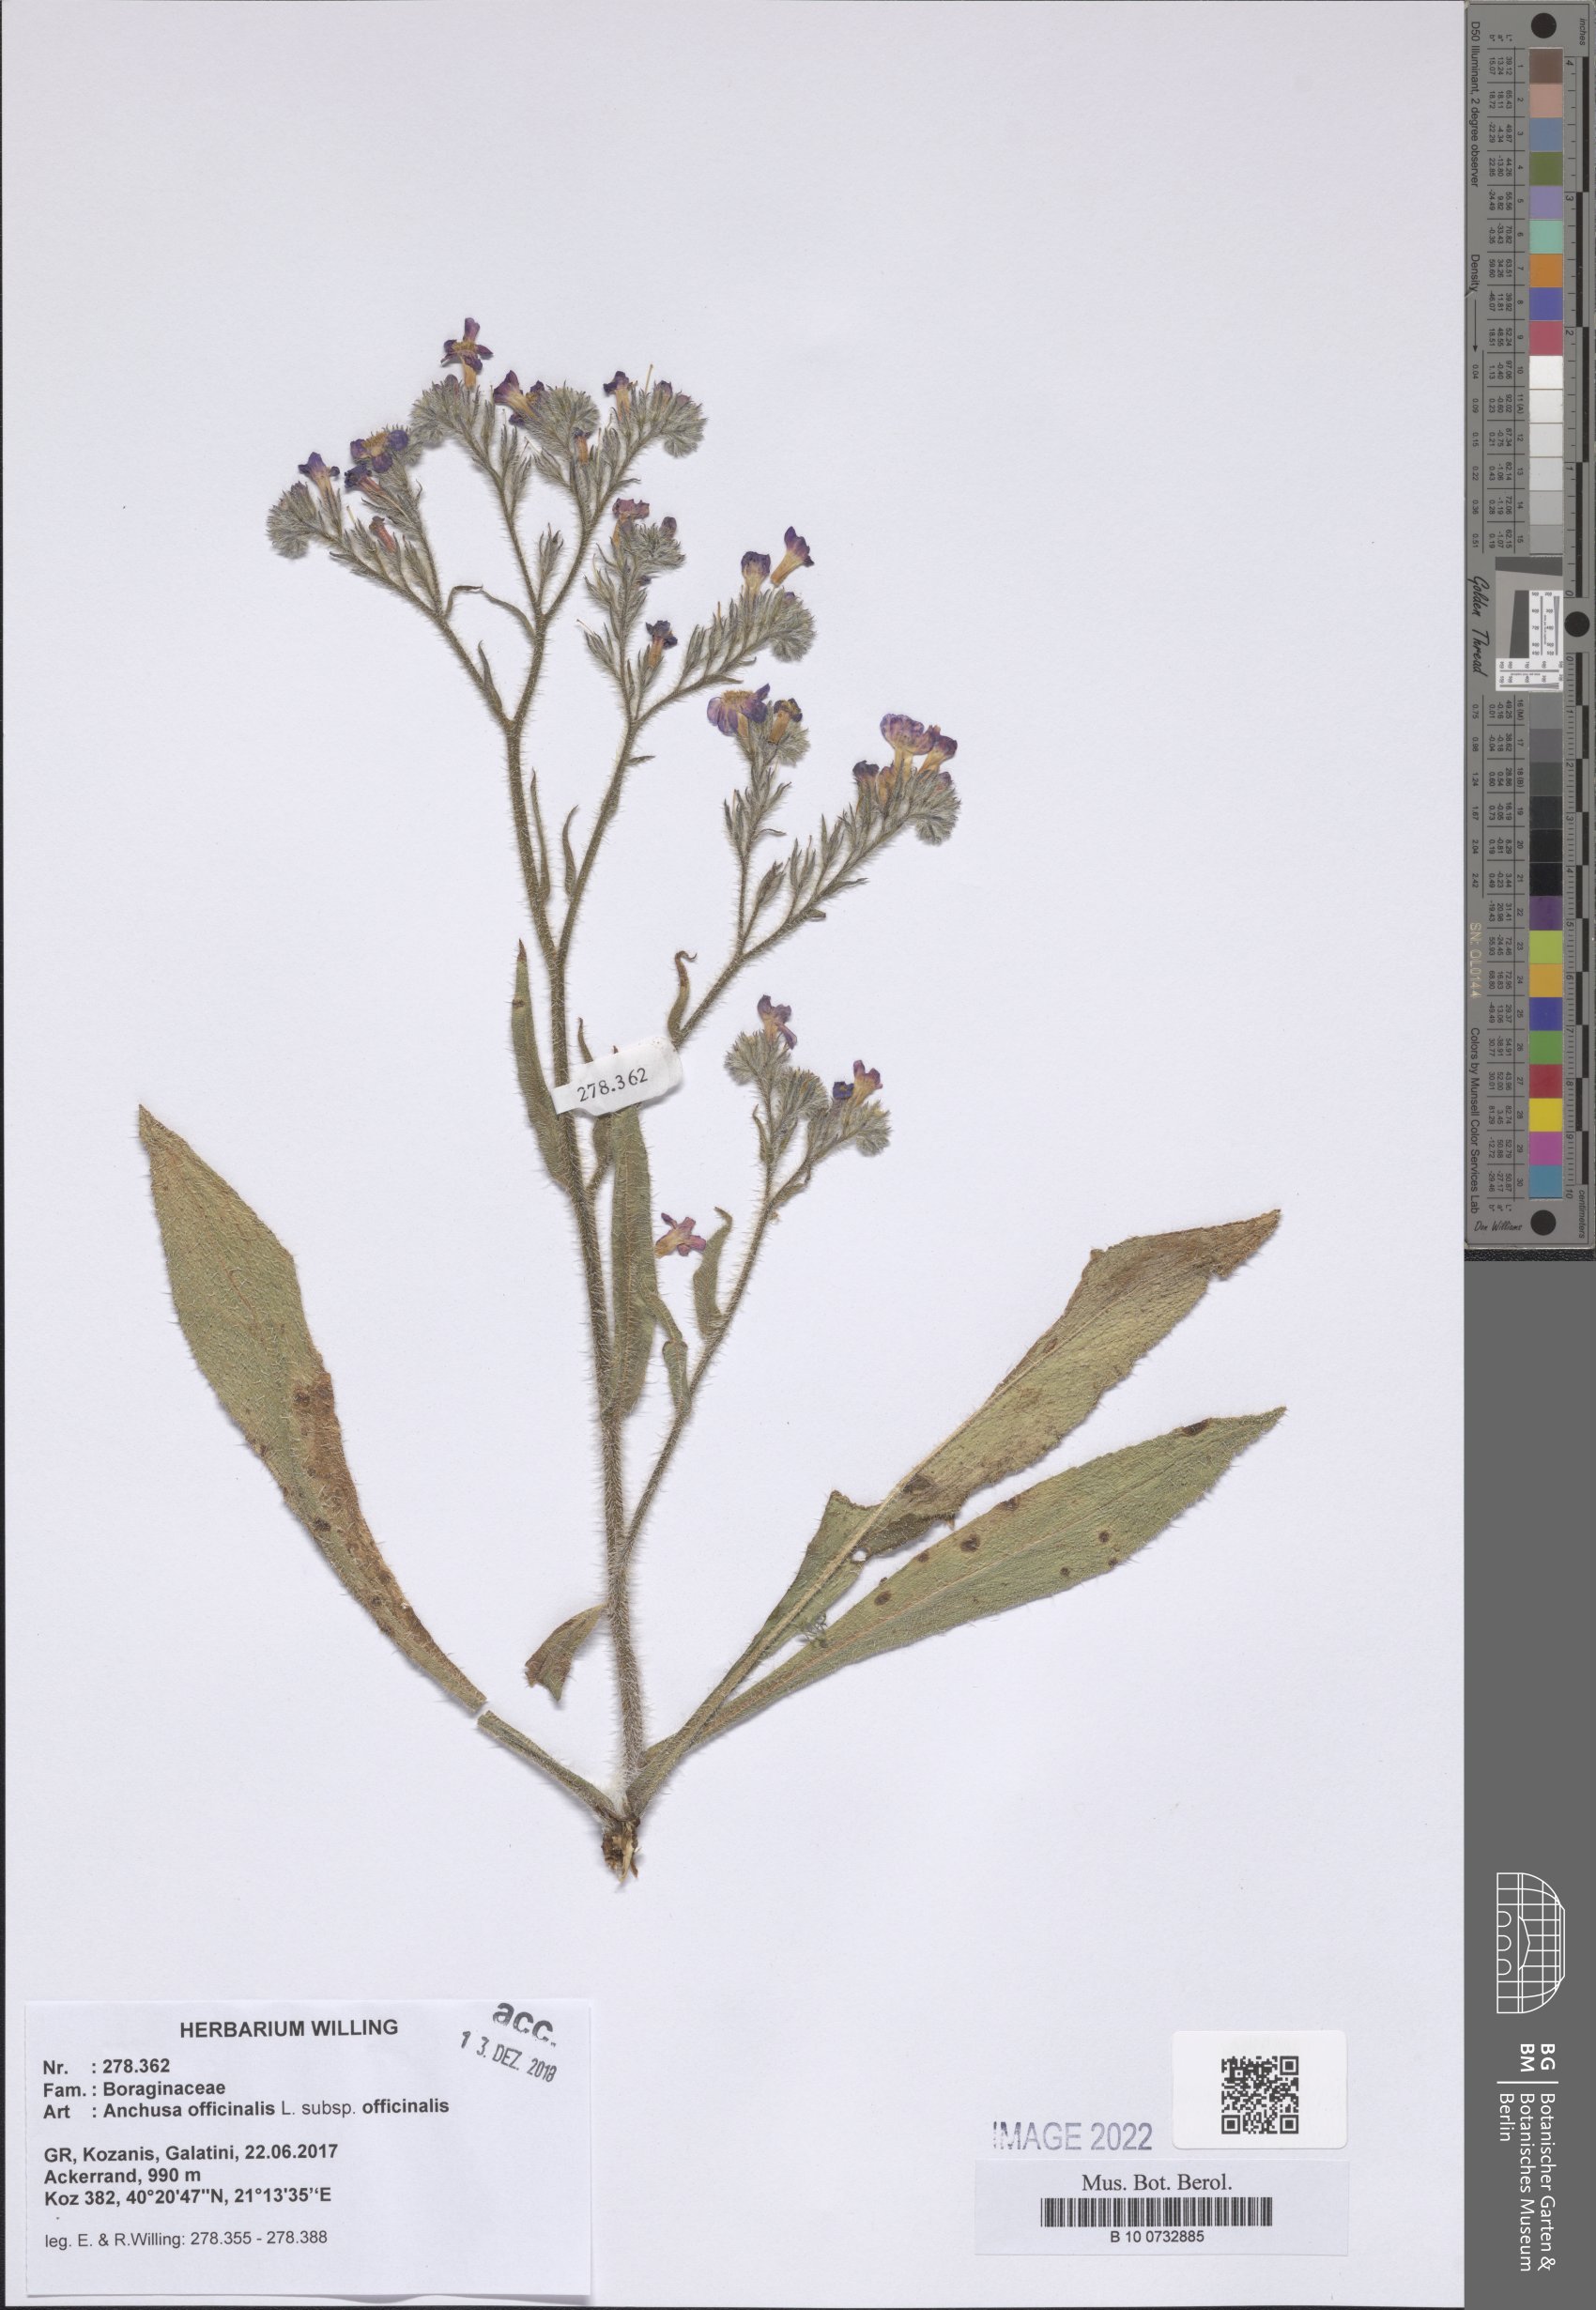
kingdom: Plantae
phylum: Tracheophyta
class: Magnoliopsida
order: Boraginales
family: Boraginaceae
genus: Anchusa
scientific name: Anchusa officinalis
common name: Alkanet
